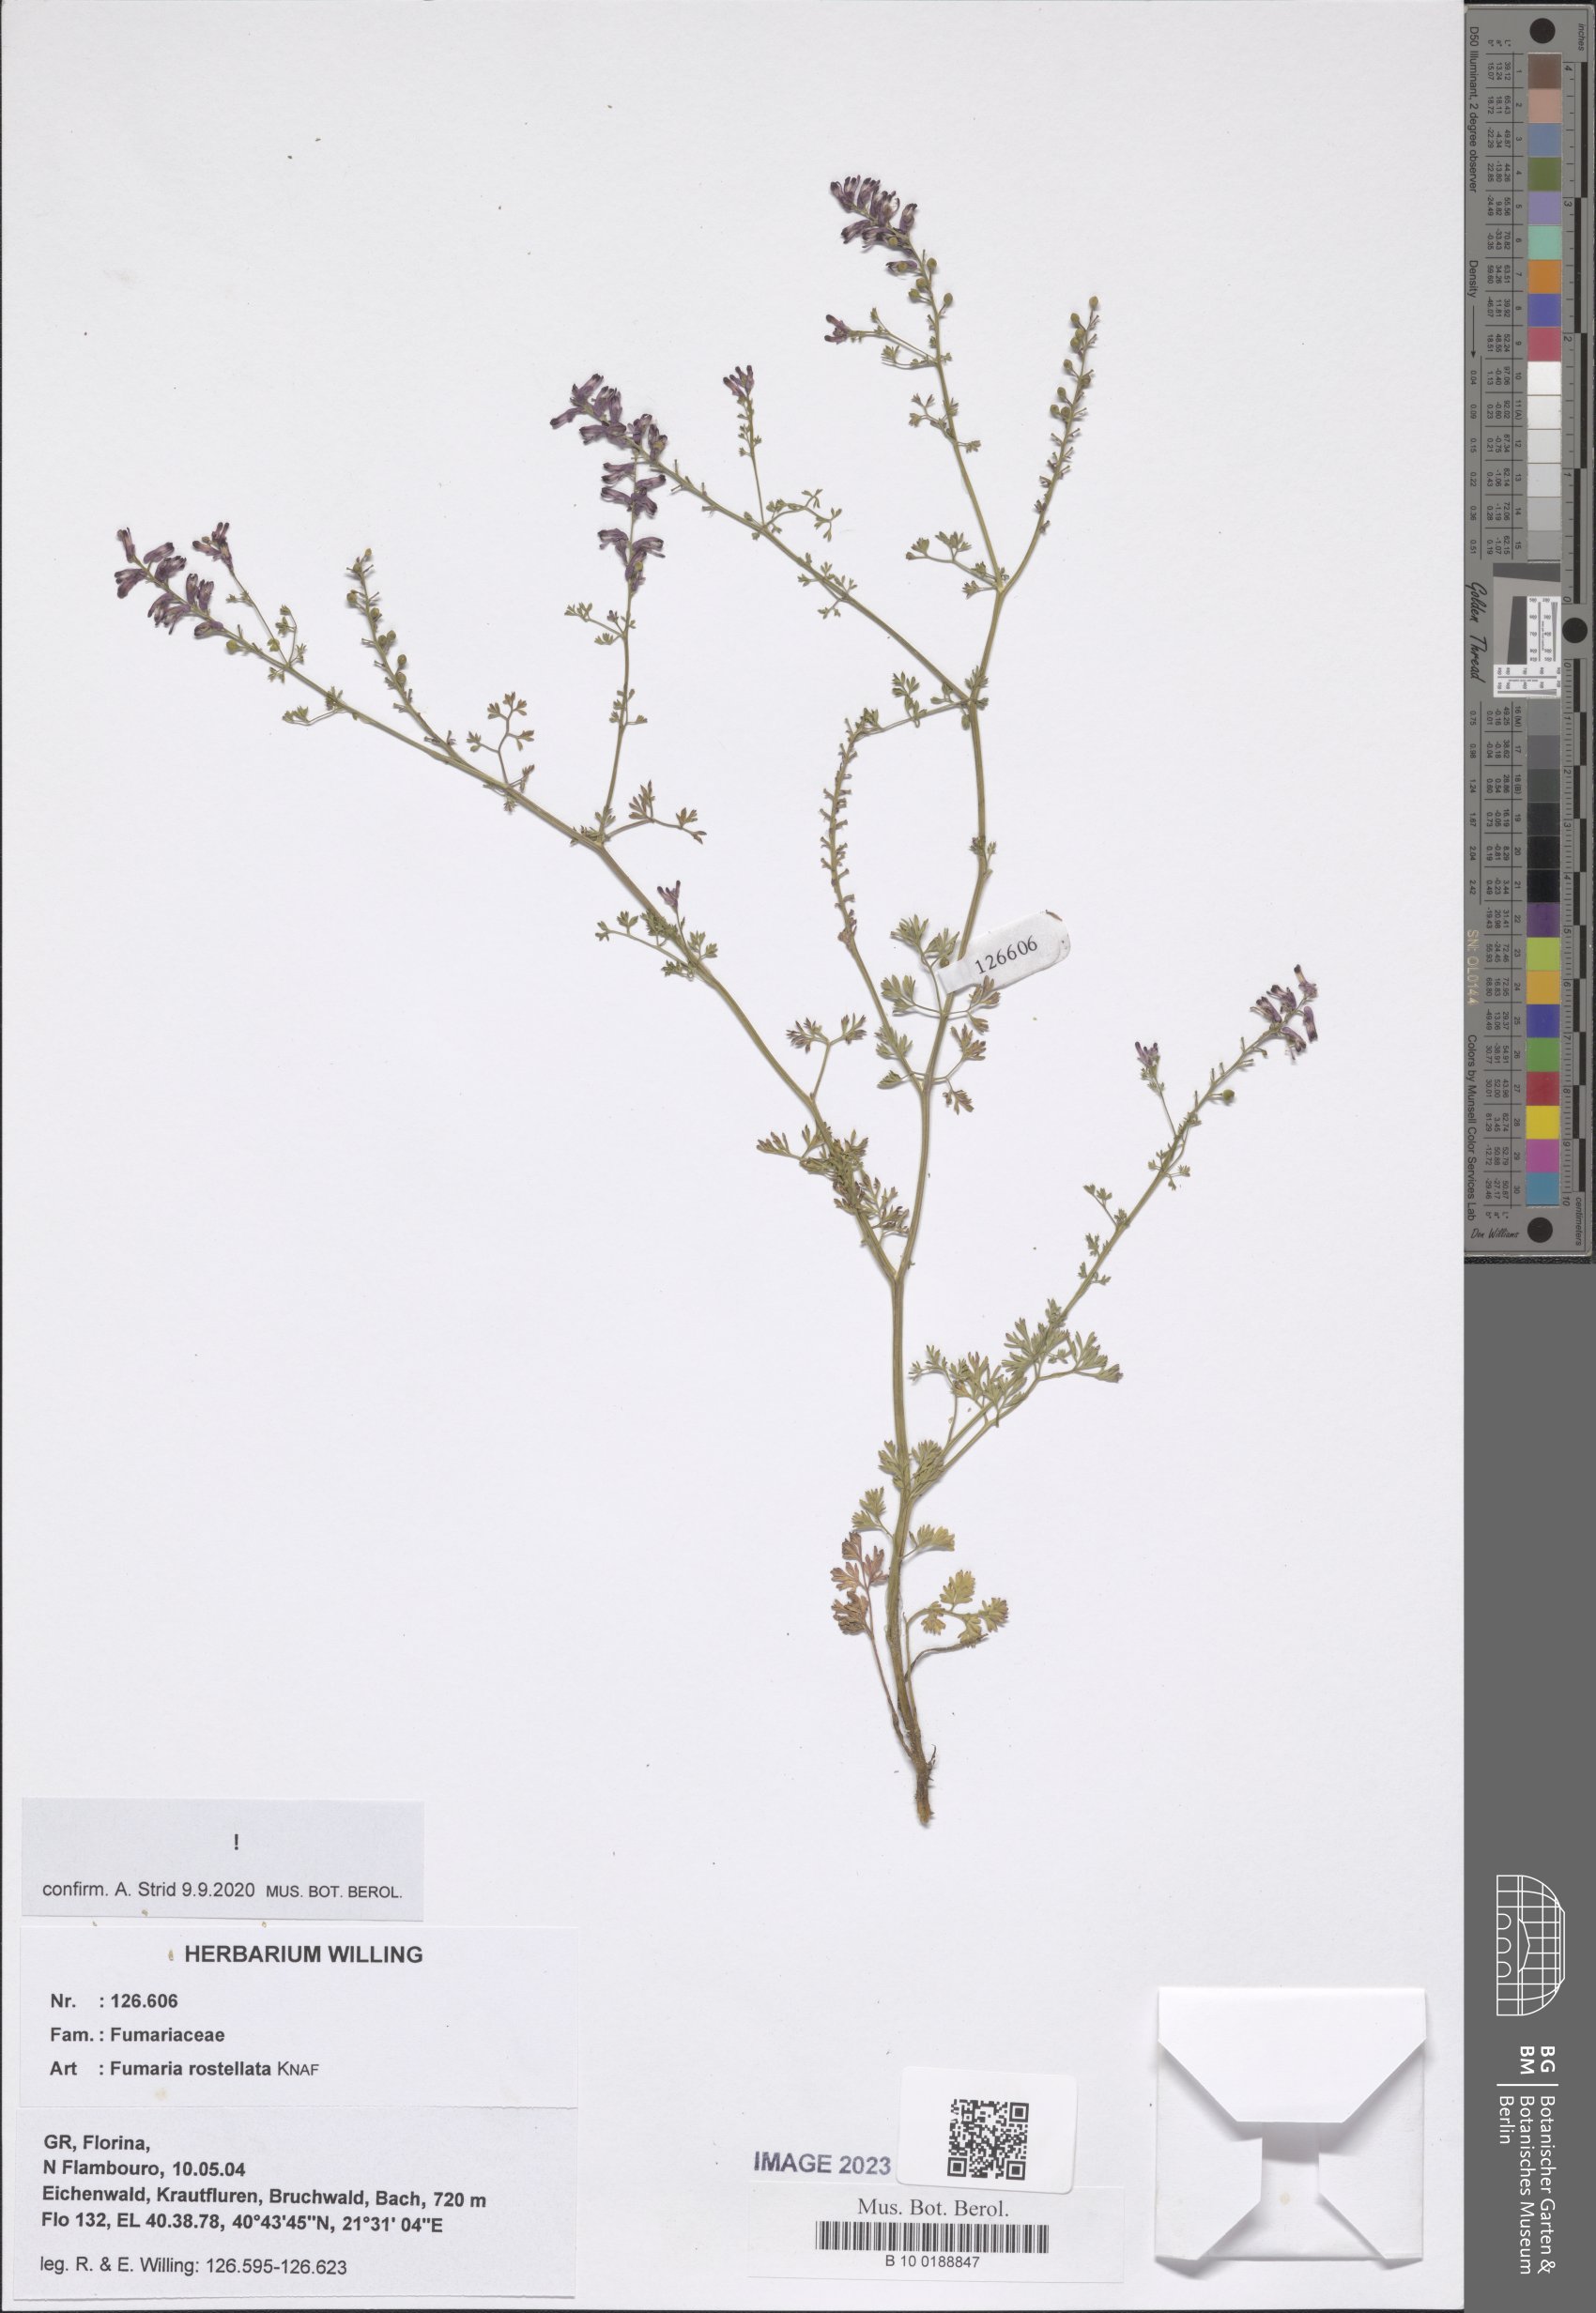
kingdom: Plantae
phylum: Tracheophyta
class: Magnoliopsida
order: Ranunculales
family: Papaveraceae
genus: Fumaria
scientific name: Fumaria rostellata
